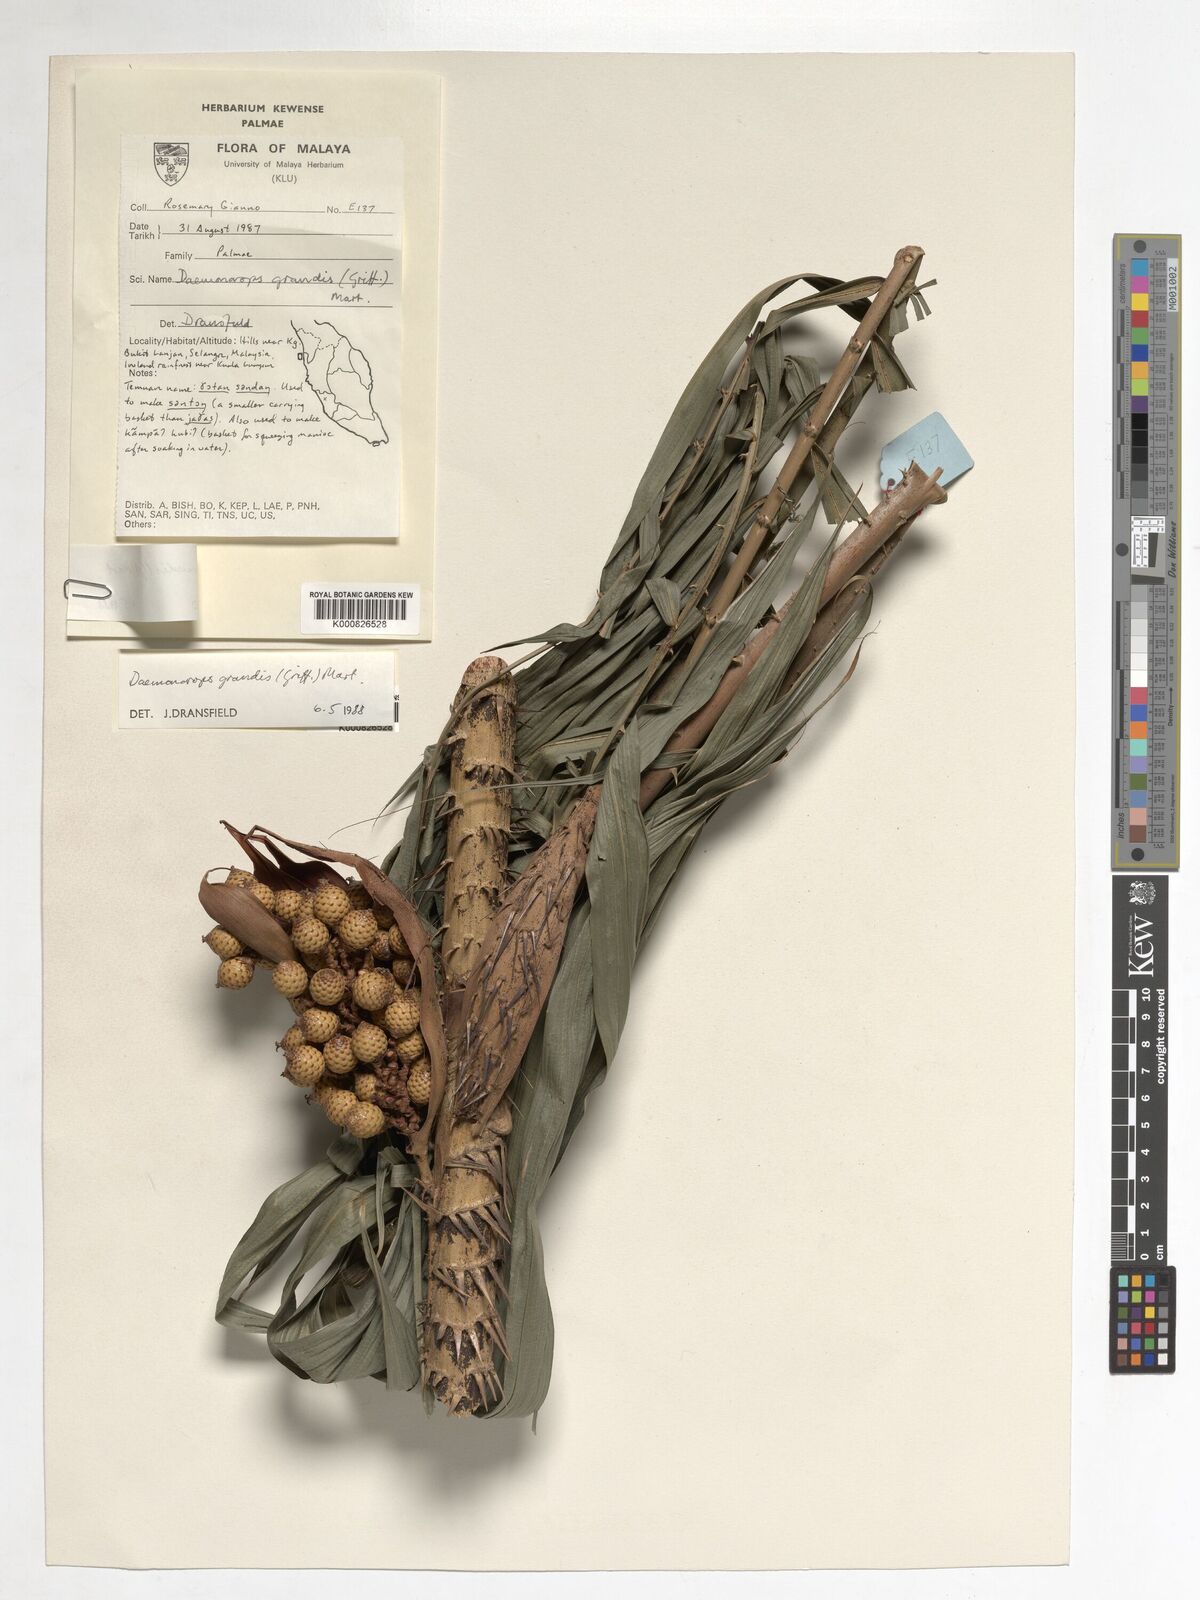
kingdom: Plantae
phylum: Tracheophyta
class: Liliopsida
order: Arecales
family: Arecaceae
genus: Calamus
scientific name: Calamus melanochaetes
